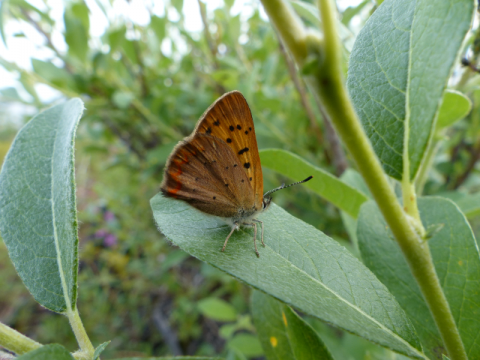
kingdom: Animalia
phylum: Arthropoda
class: Insecta
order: Lepidoptera
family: Lycaenidae
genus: Epidemia
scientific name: Epidemia dorcas
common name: Dorcas Copper
